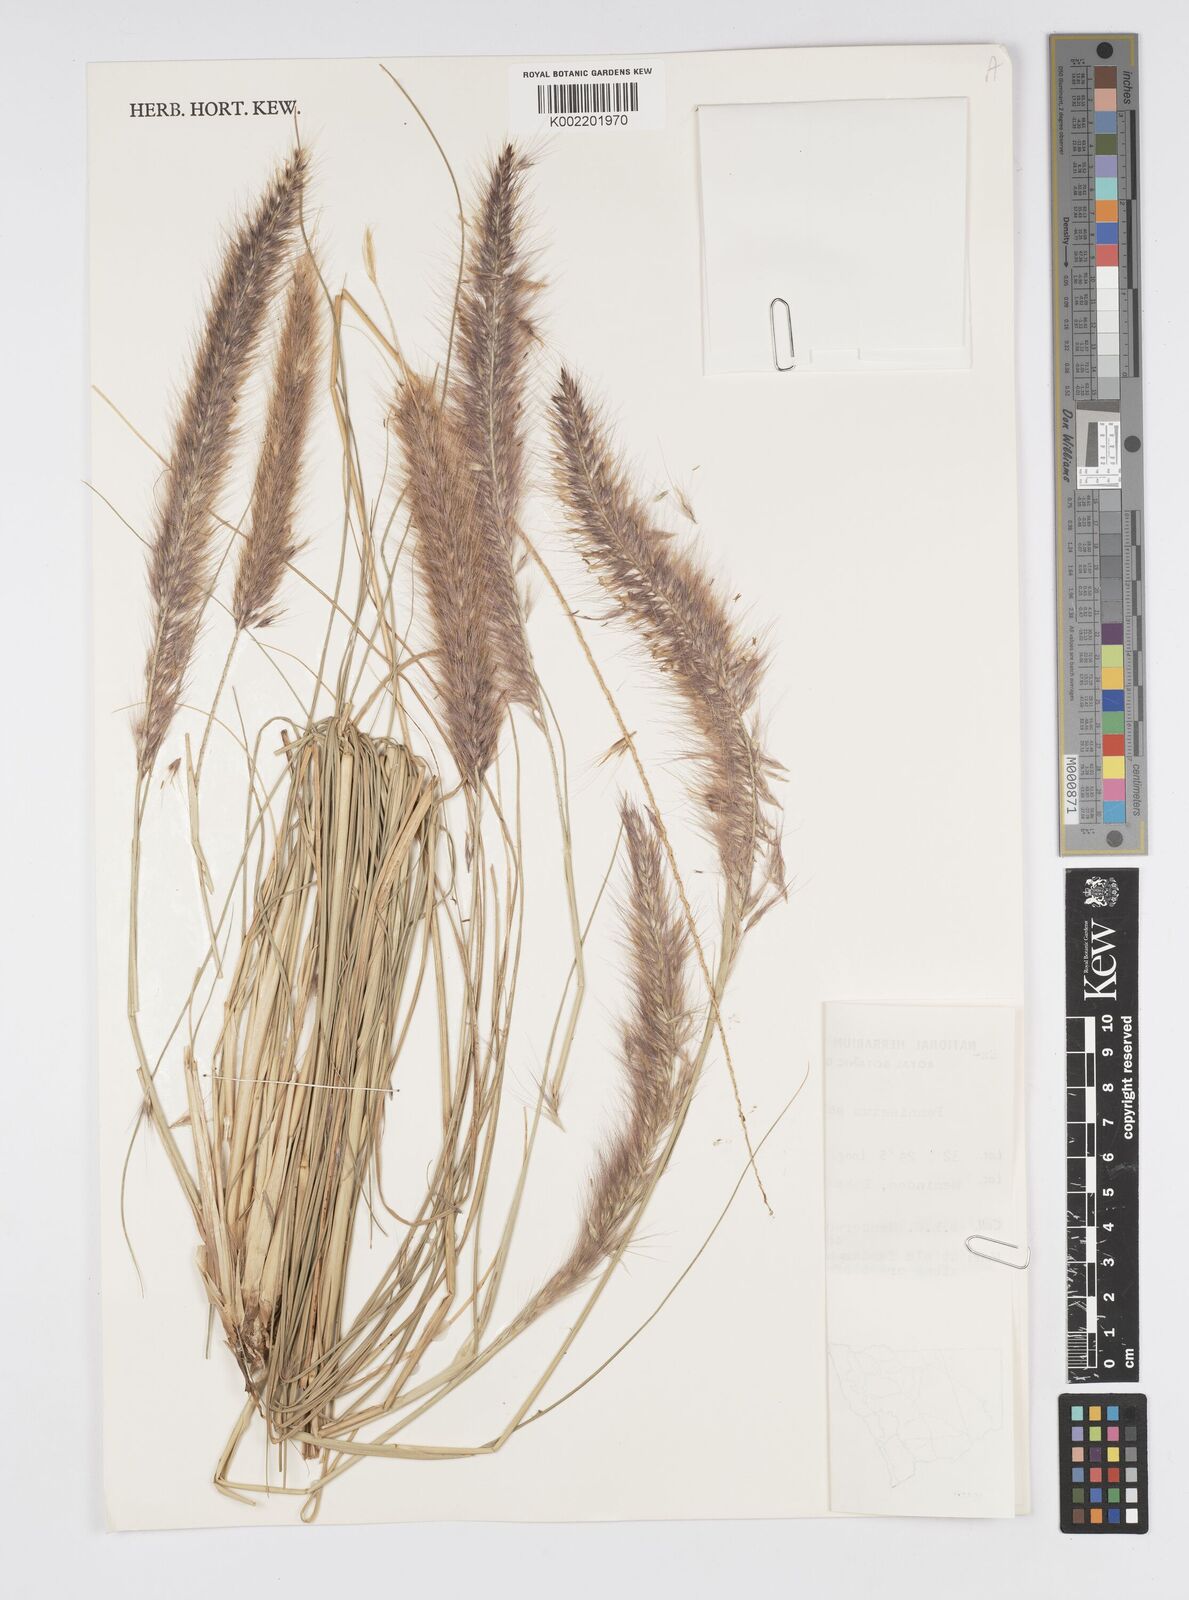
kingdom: Plantae
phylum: Tracheophyta
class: Liliopsida
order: Poales
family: Poaceae
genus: Cenchrus
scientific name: Cenchrus setaceus
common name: Crimson fountaingrass
